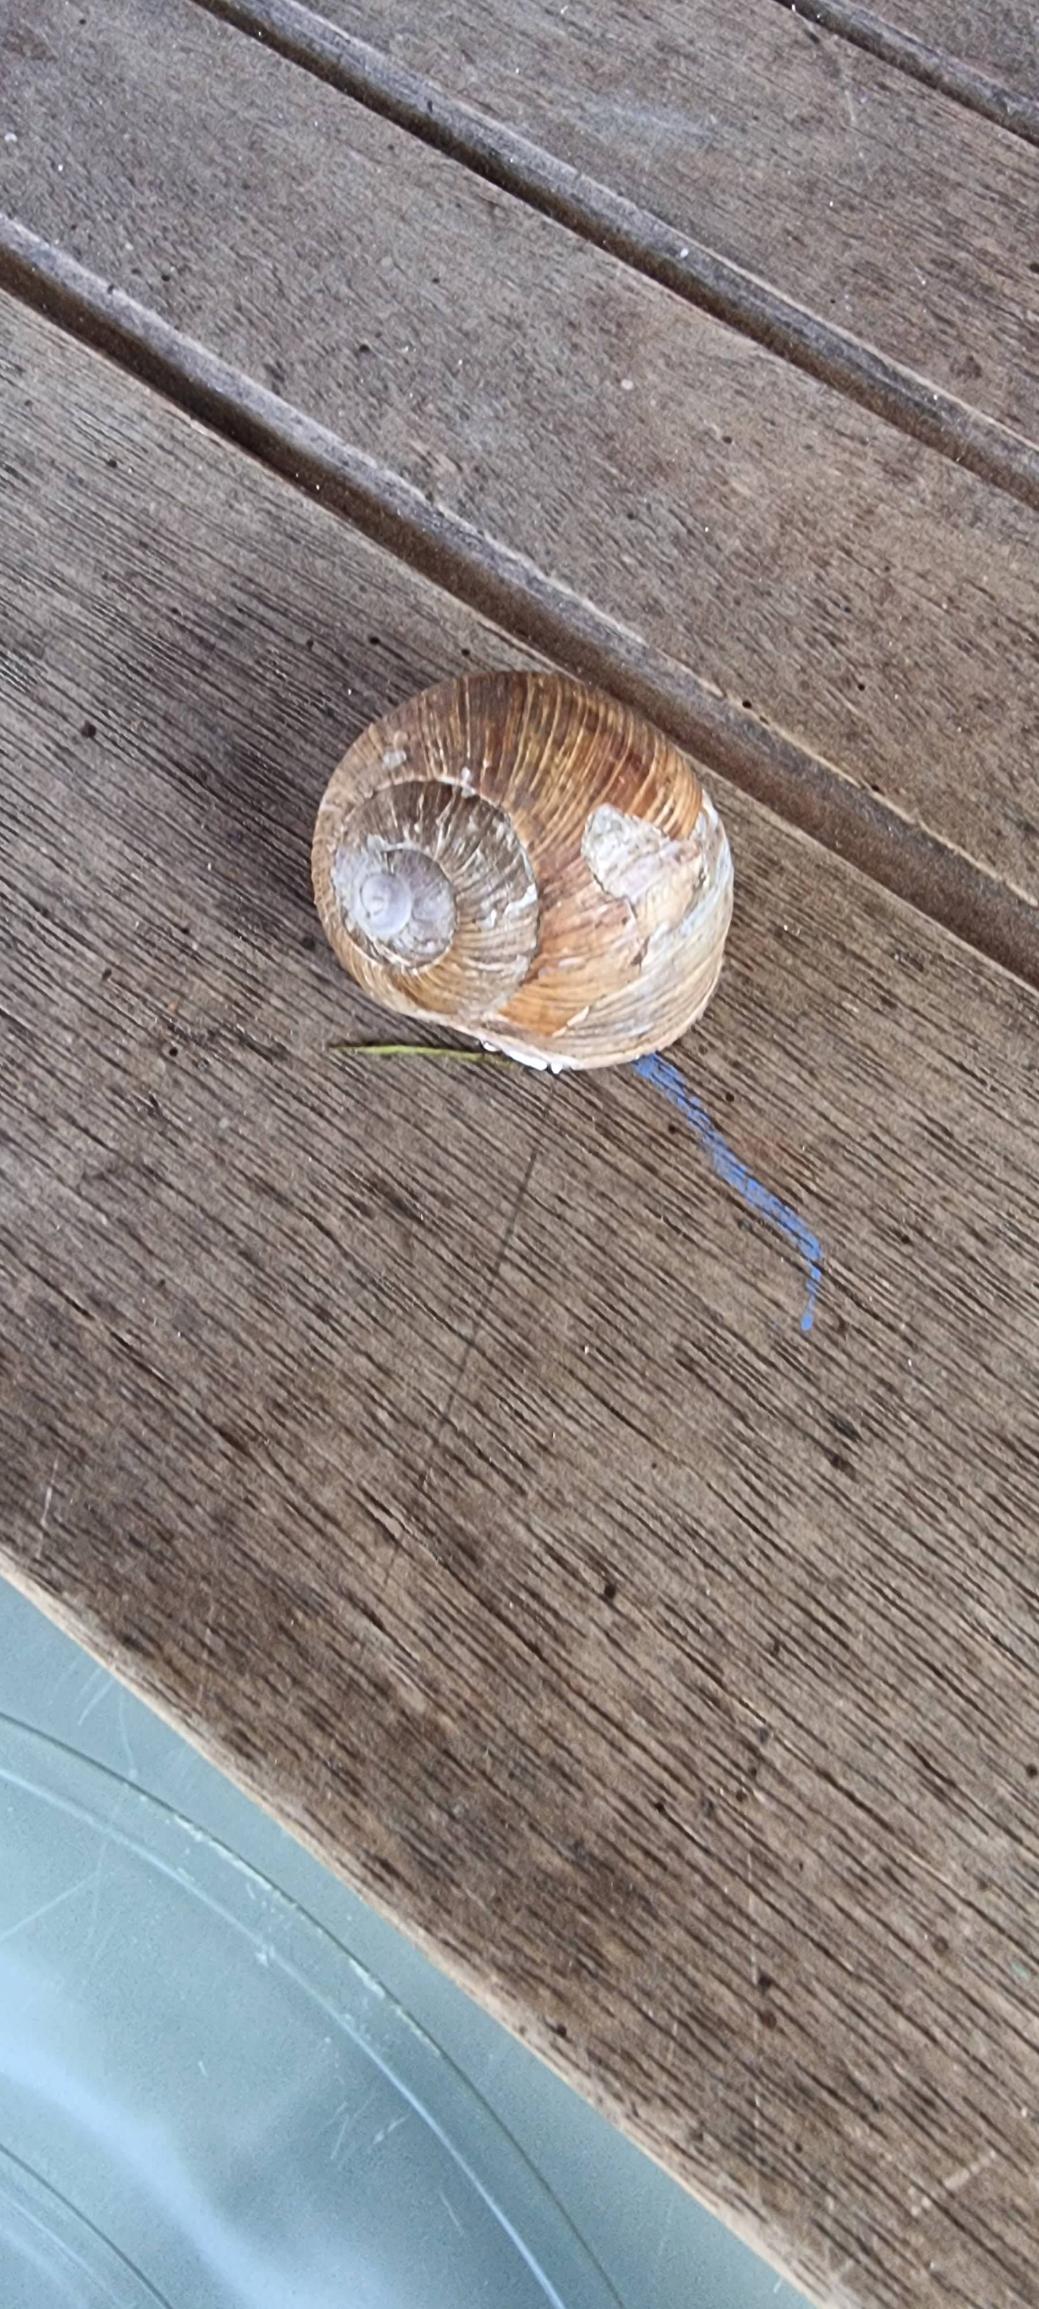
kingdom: Animalia
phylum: Mollusca
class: Gastropoda
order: Stylommatophora
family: Helicidae
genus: Helix
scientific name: Helix pomatia
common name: Vinbjergsnegl
